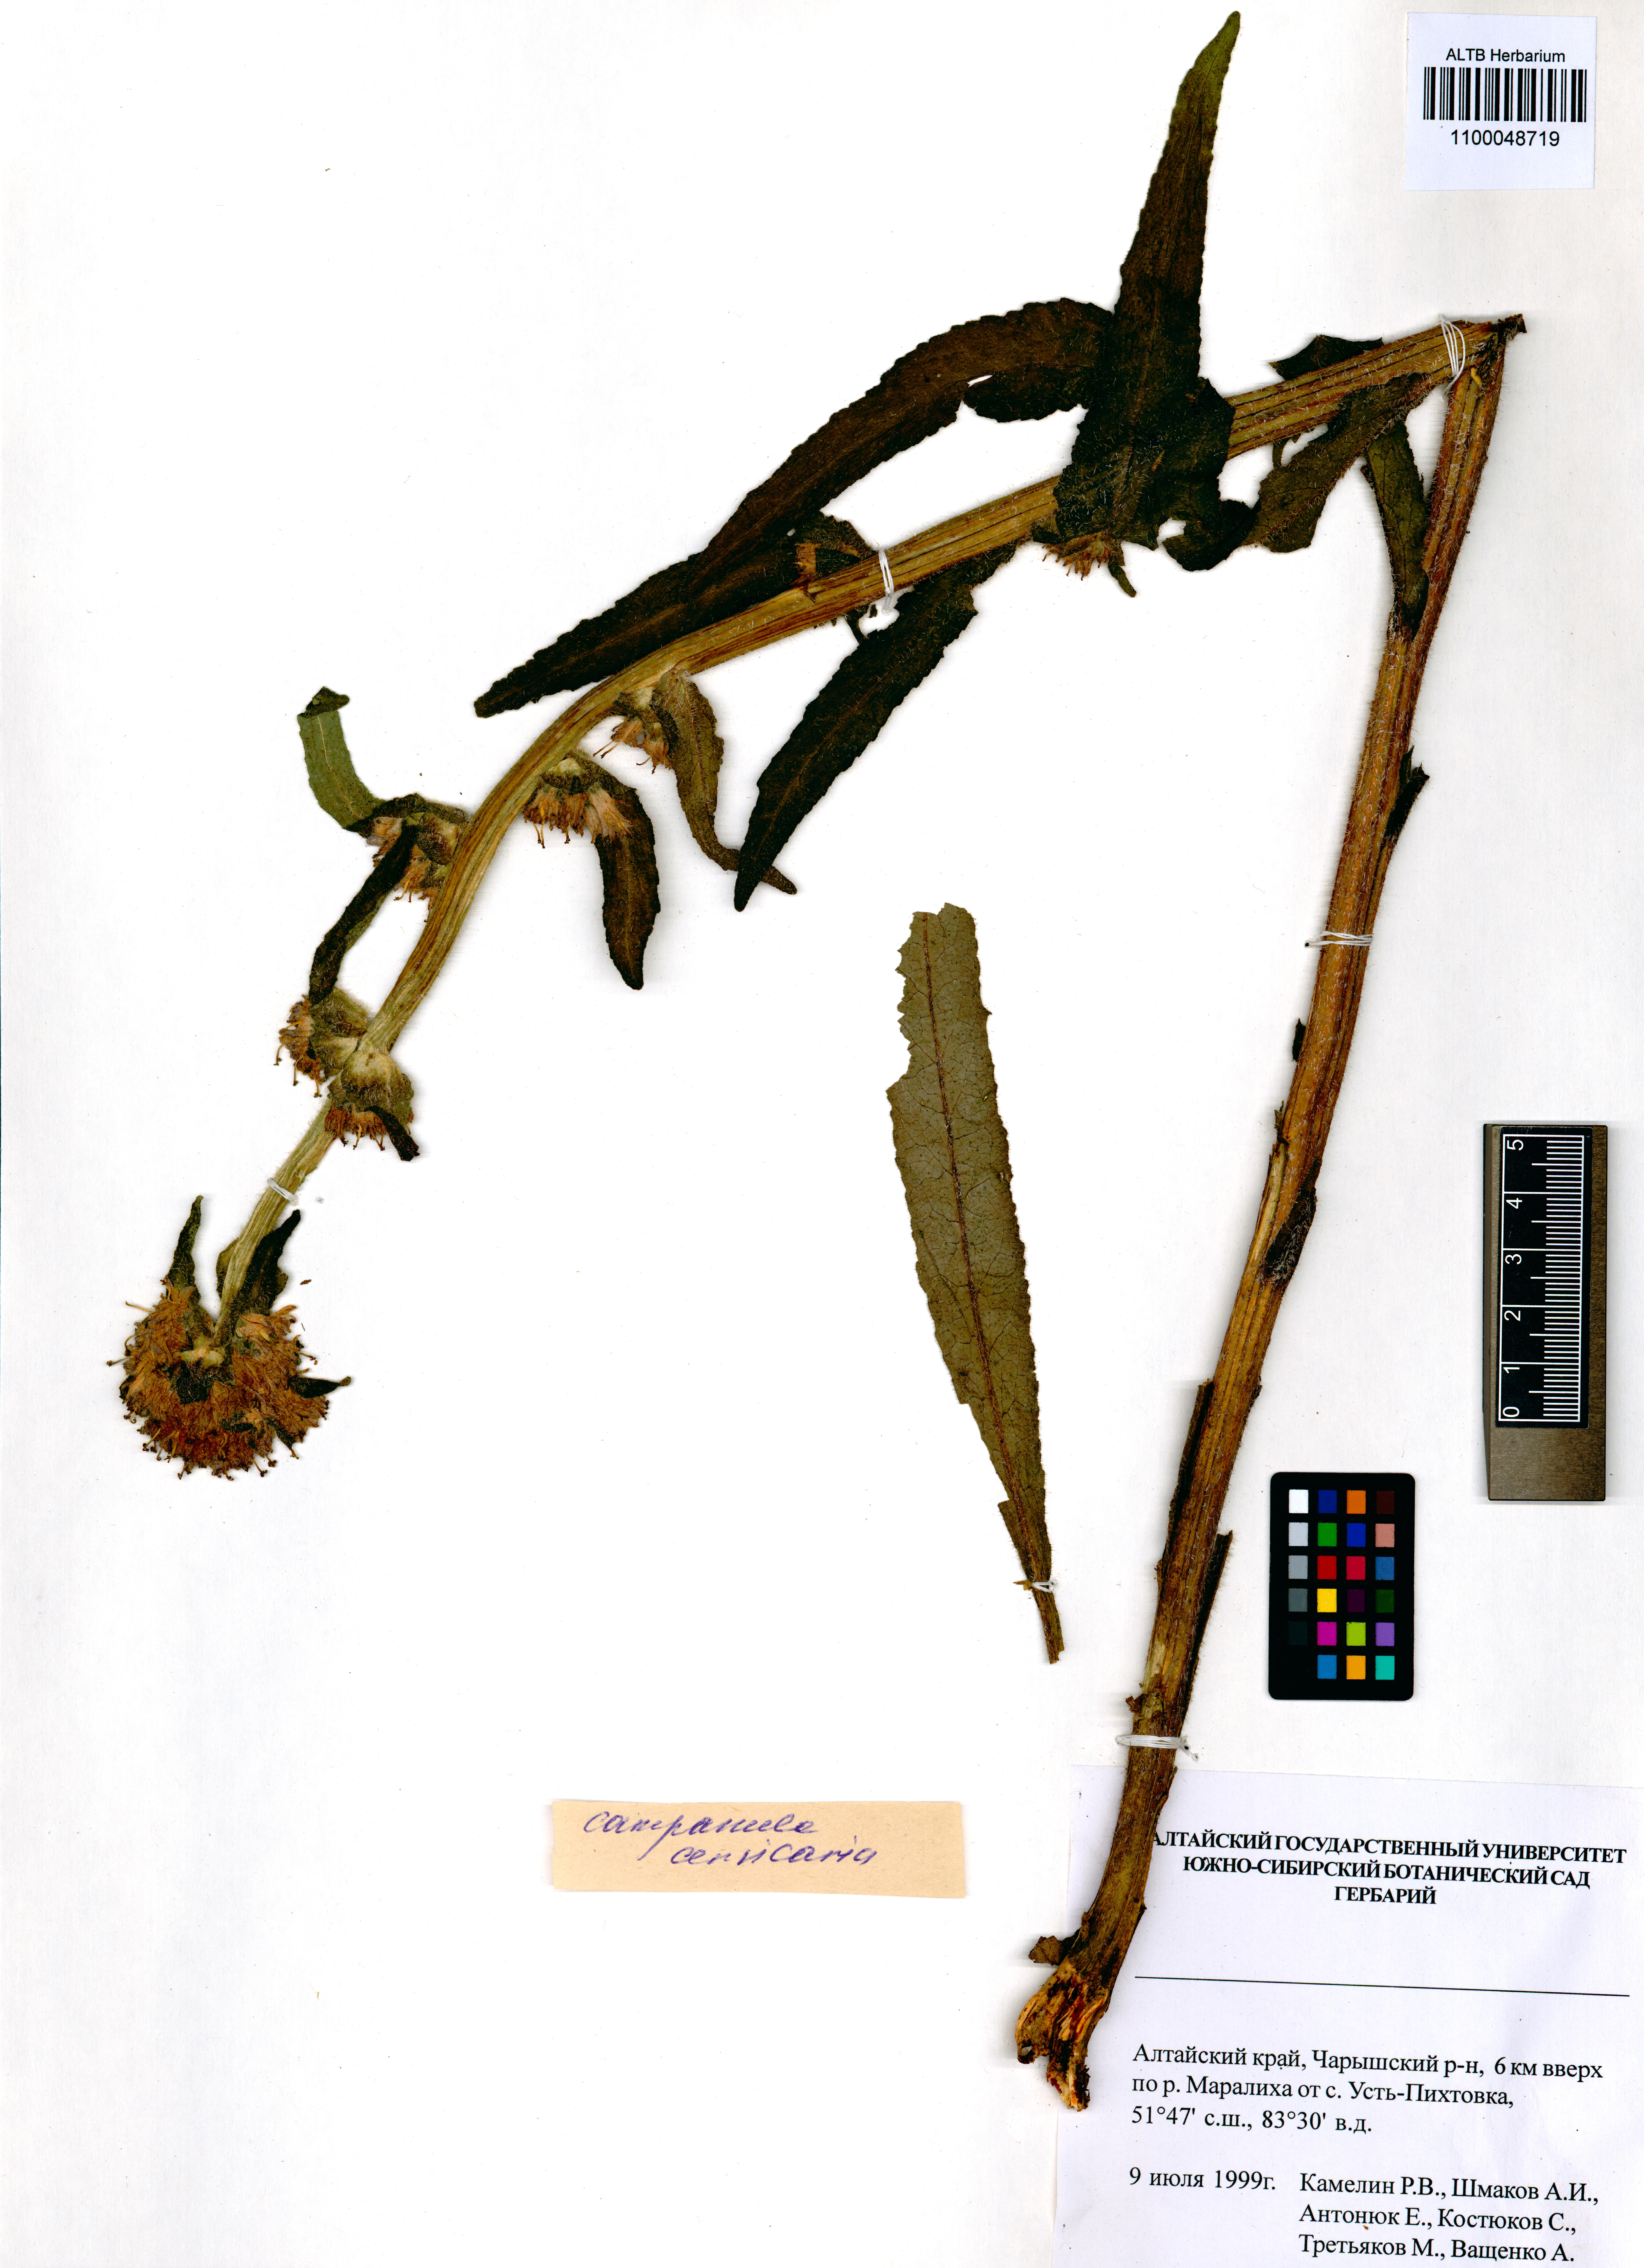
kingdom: Plantae
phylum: Tracheophyta
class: Magnoliopsida
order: Asterales
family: Campanulaceae
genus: Campanula
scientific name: Campanula cervicaria
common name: Bristly bellflower
